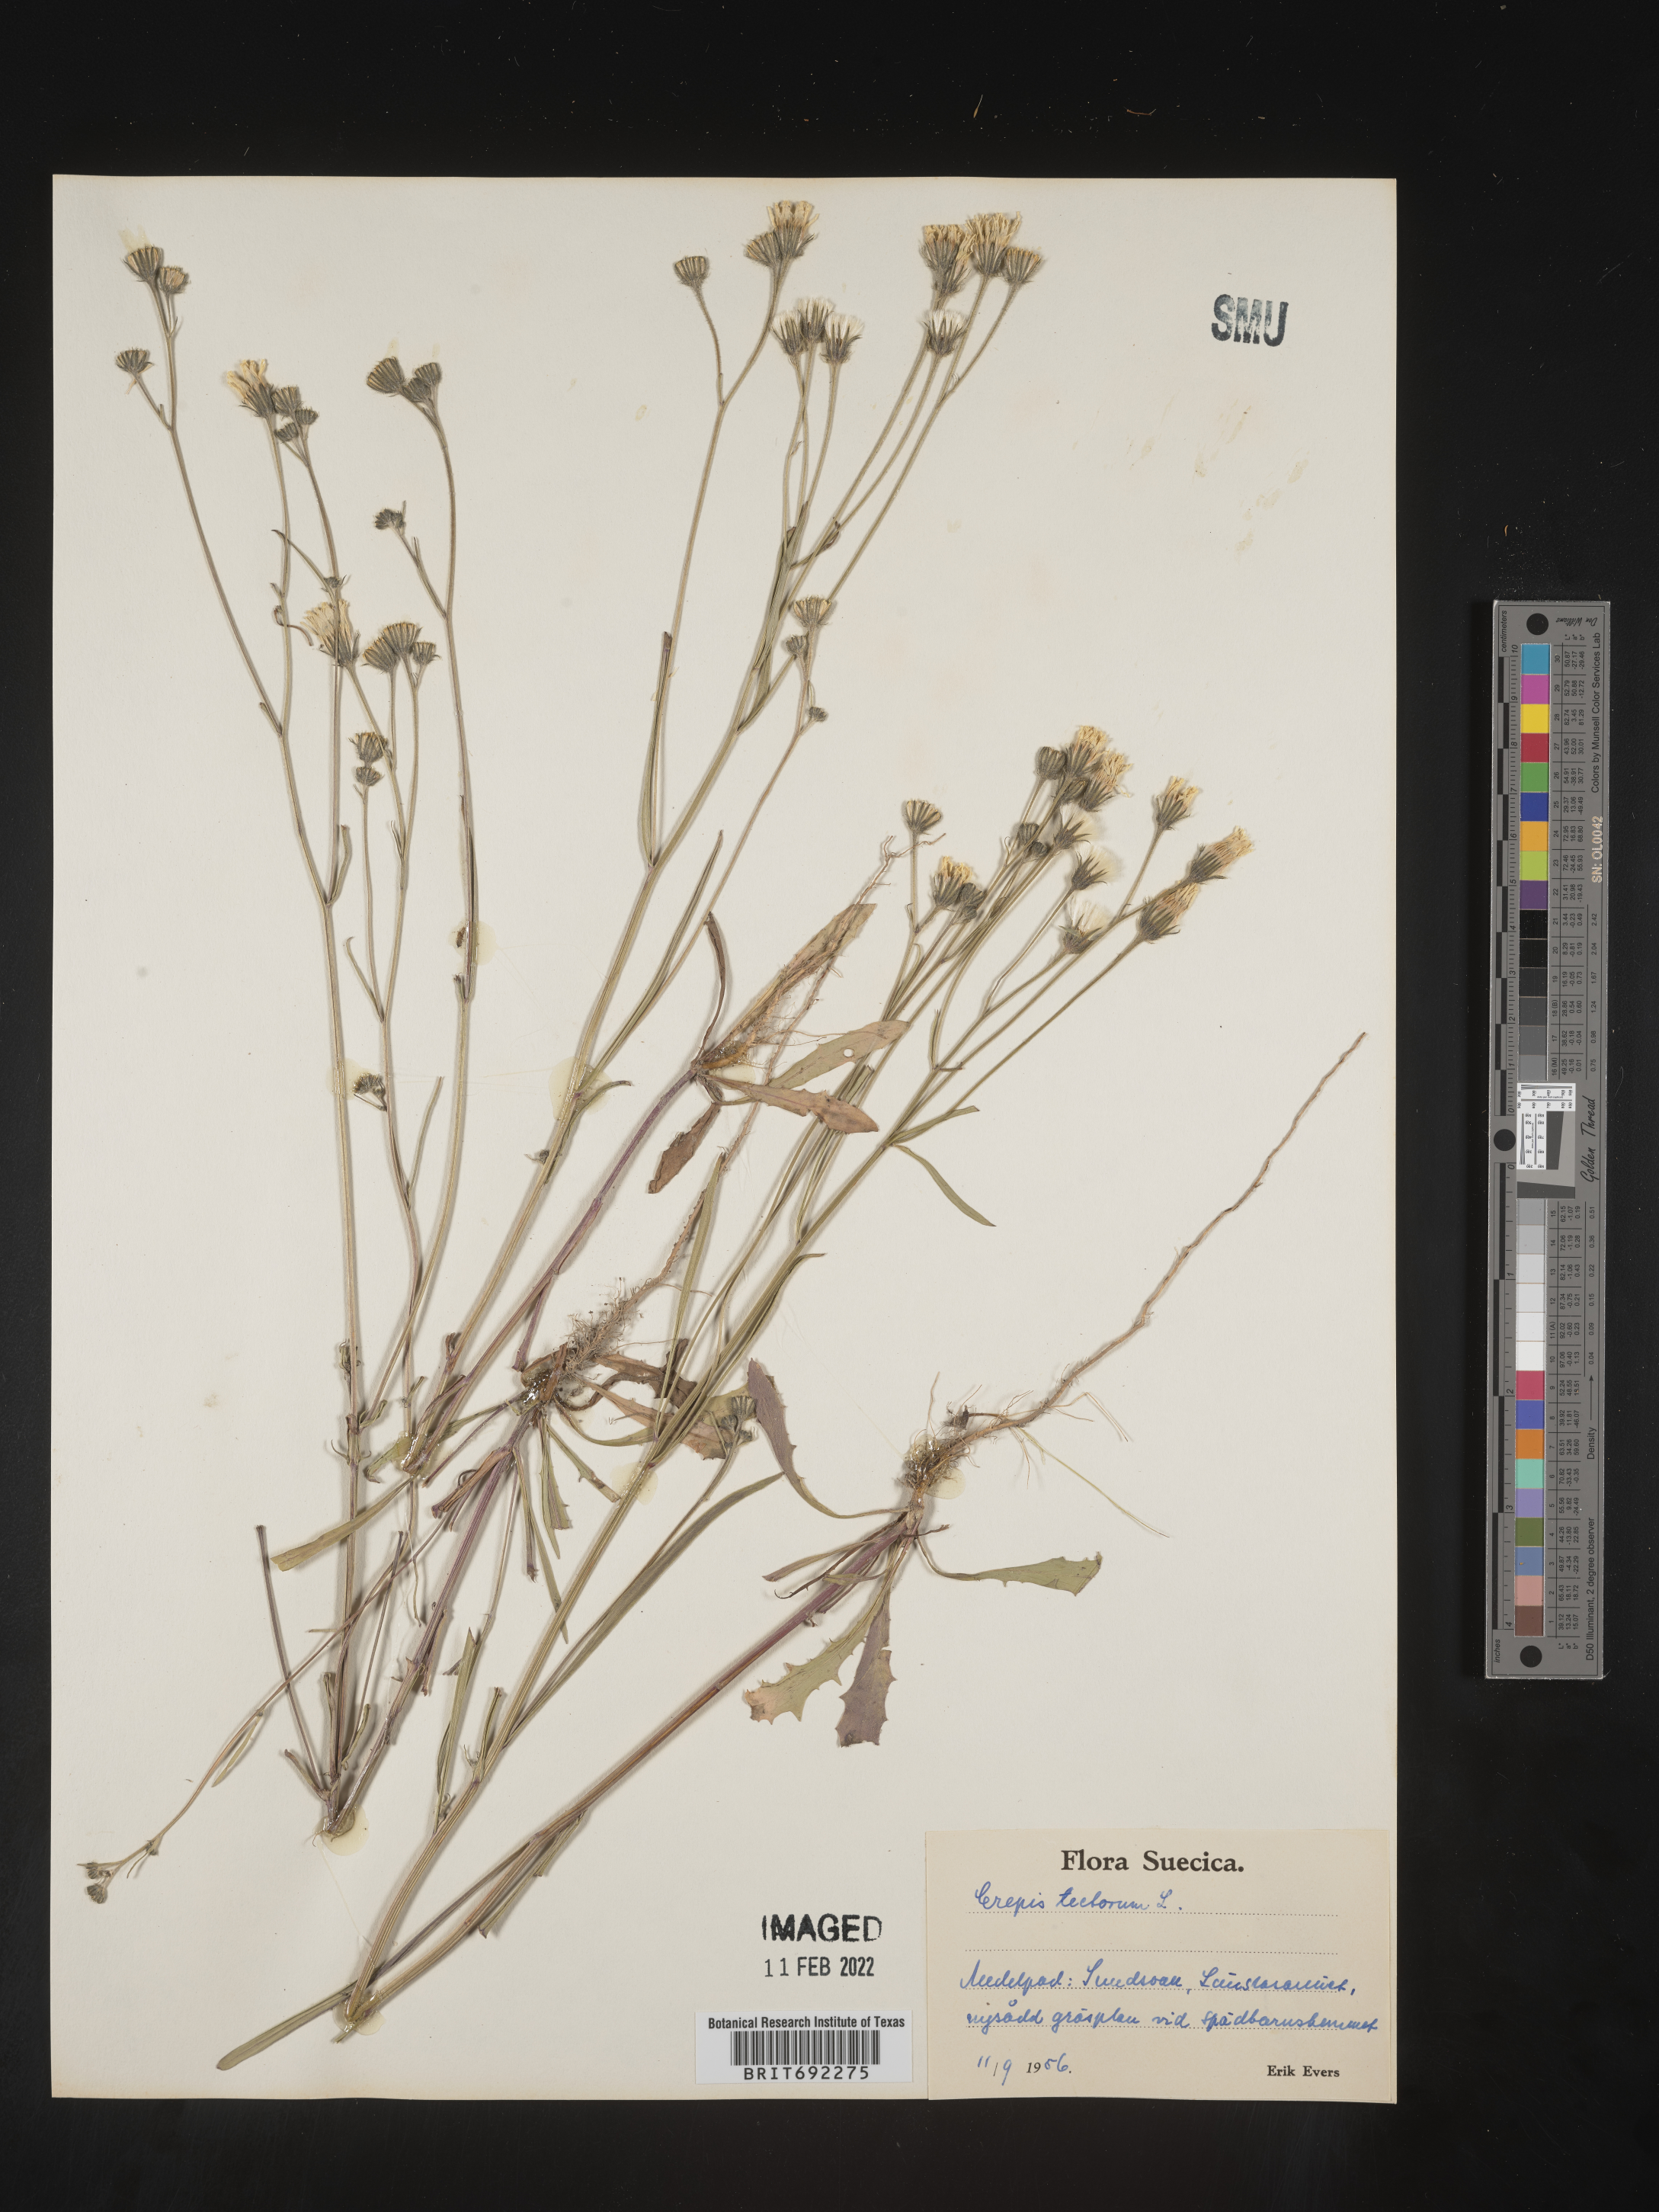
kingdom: Plantae
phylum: Tracheophyta
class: Magnoliopsida
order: Asterales
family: Asteraceae
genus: Crepis
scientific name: Crepis
